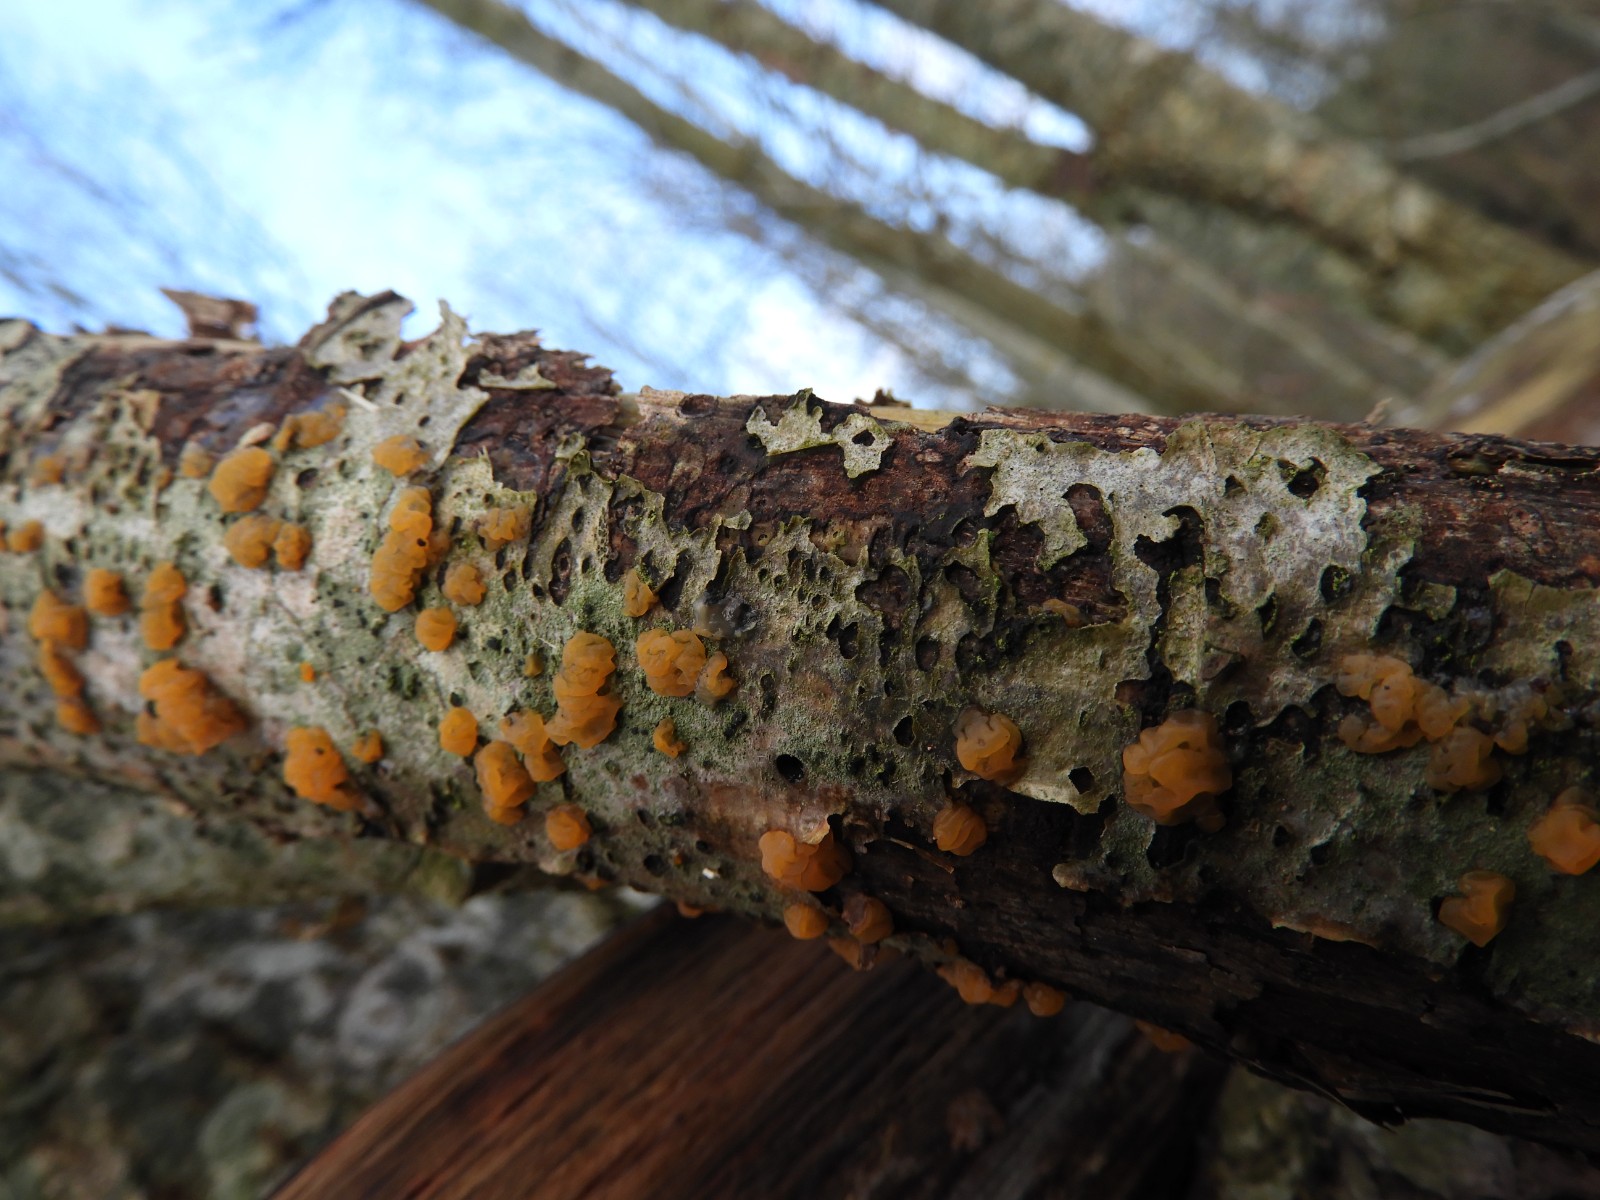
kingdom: Fungi
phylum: Basidiomycota
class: Dacrymycetes
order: Dacrymycetales
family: Dacrymycetaceae
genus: Dacrymyces
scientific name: Dacrymyces lacrymalis
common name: rynket tåresvamp
